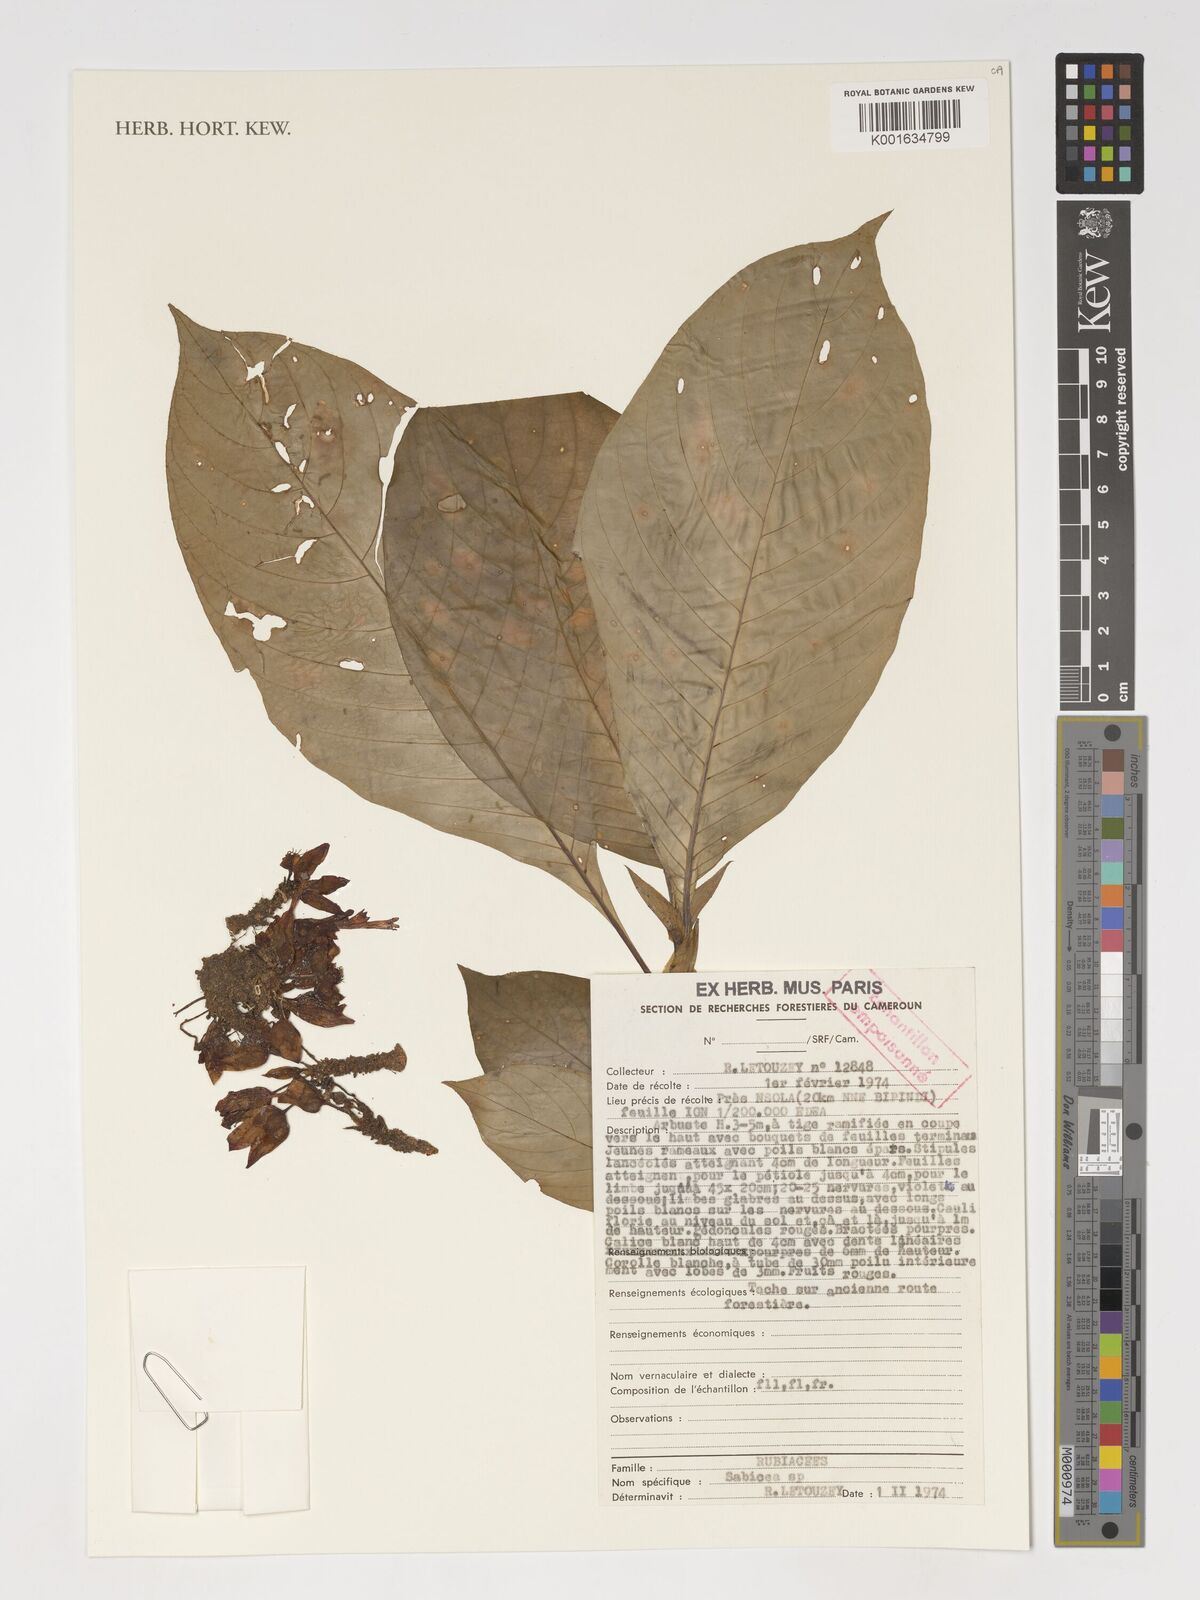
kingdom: Plantae
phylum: Tracheophyta
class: Magnoliopsida
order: Gentianales
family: Rubiaceae
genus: Sabicea
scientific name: Sabicea
